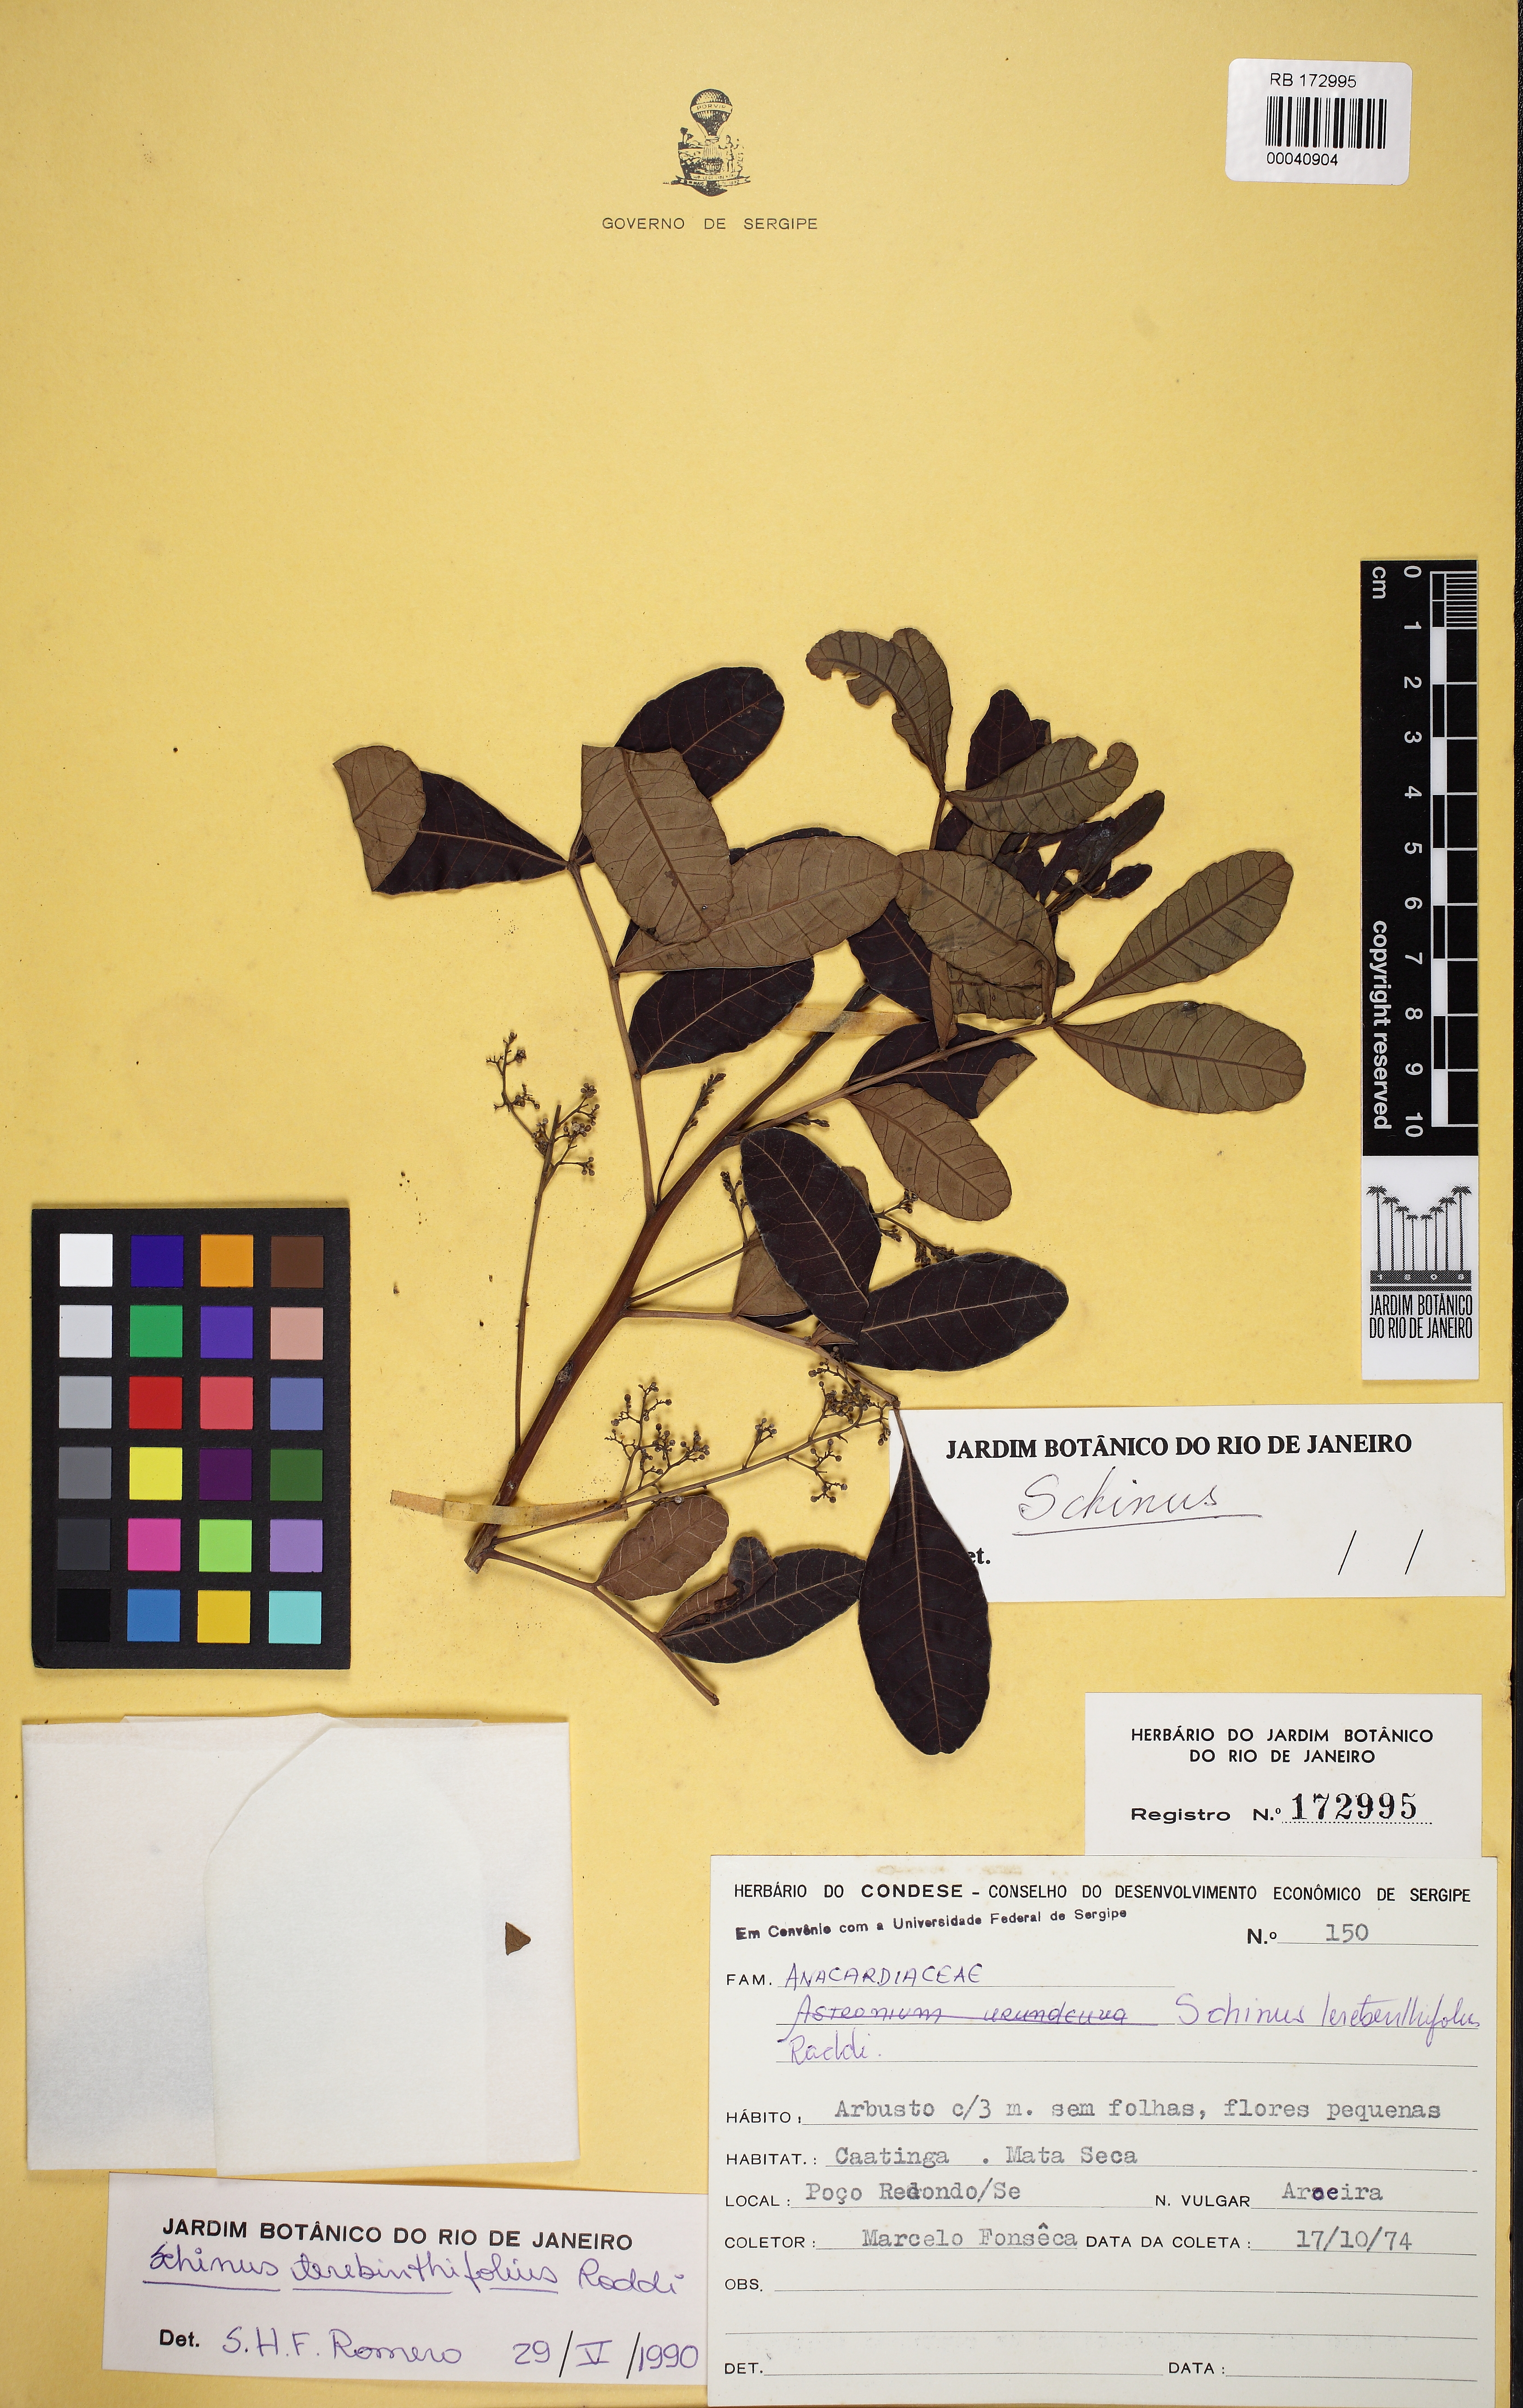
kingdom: Plantae
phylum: Tracheophyta
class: Magnoliopsida
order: Sapindales
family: Anacardiaceae
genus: Schinus
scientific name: Schinus terebinthifolia
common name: Brazilian peppertree
